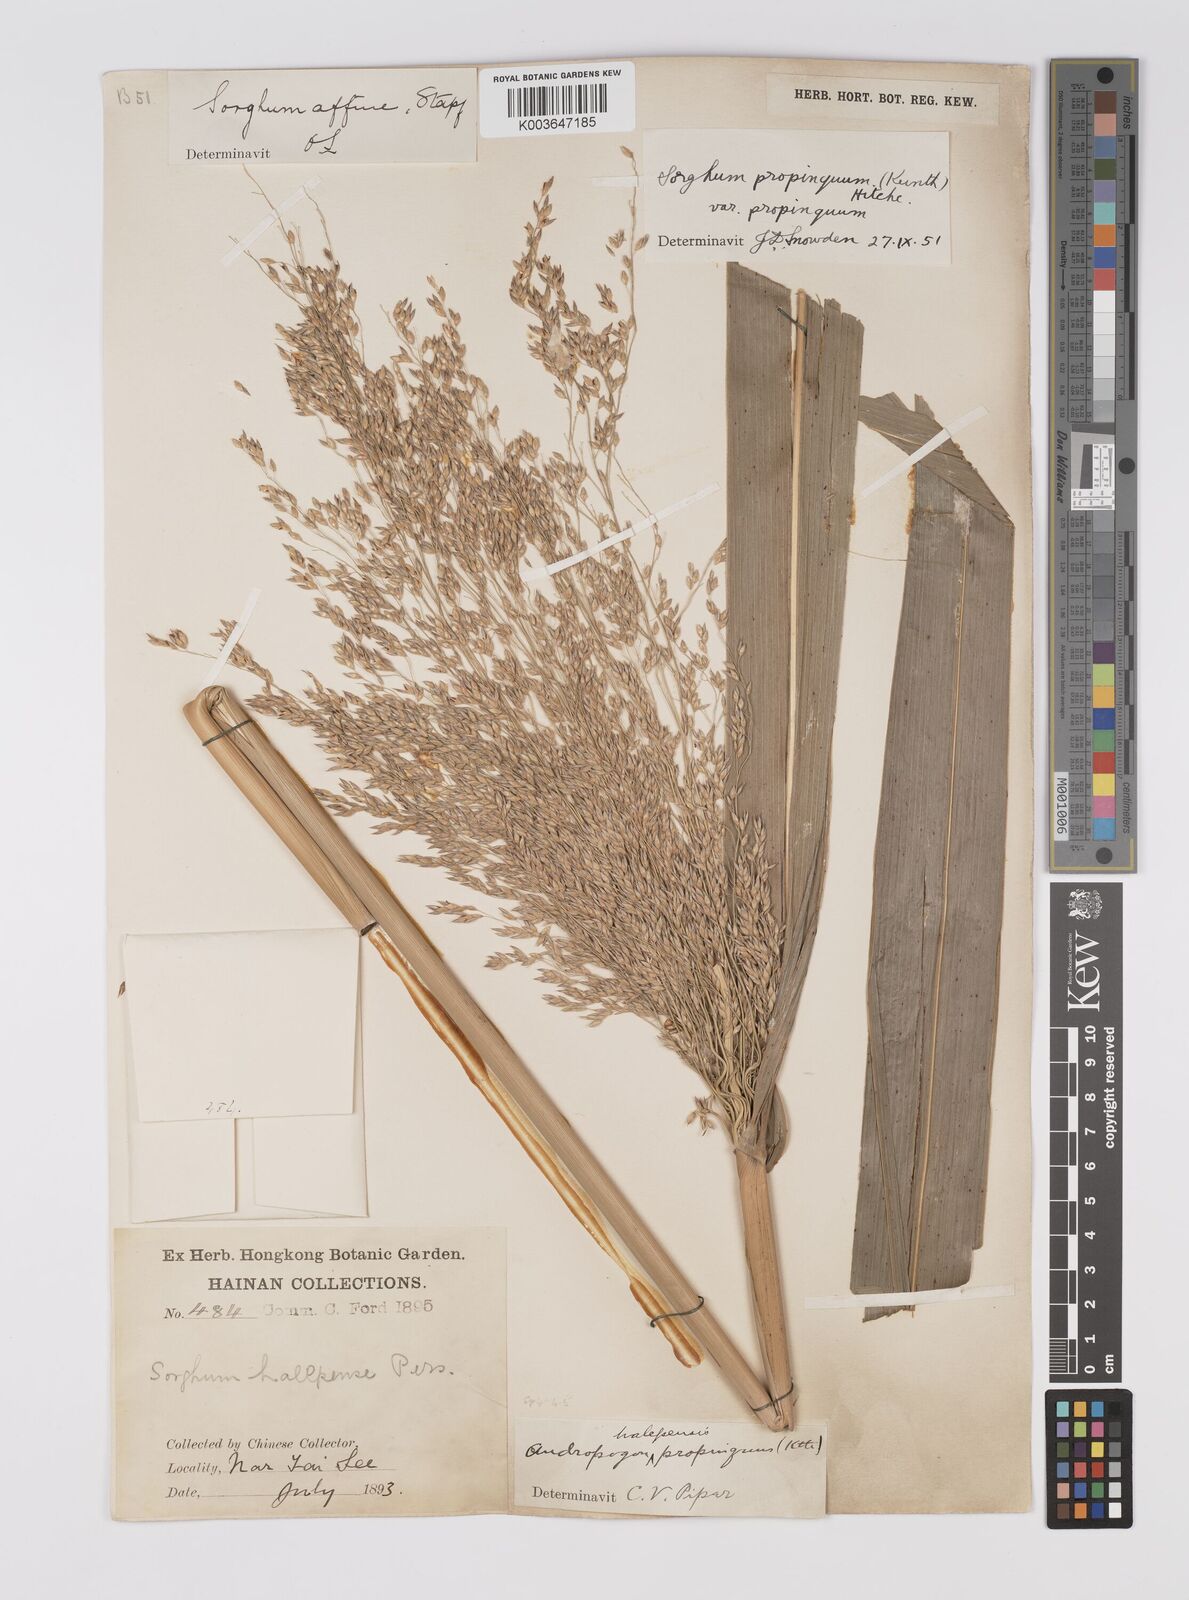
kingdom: Plantae
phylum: Tracheophyta
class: Liliopsida
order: Poales
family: Poaceae
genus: Sorghum
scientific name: Sorghum propinquum
